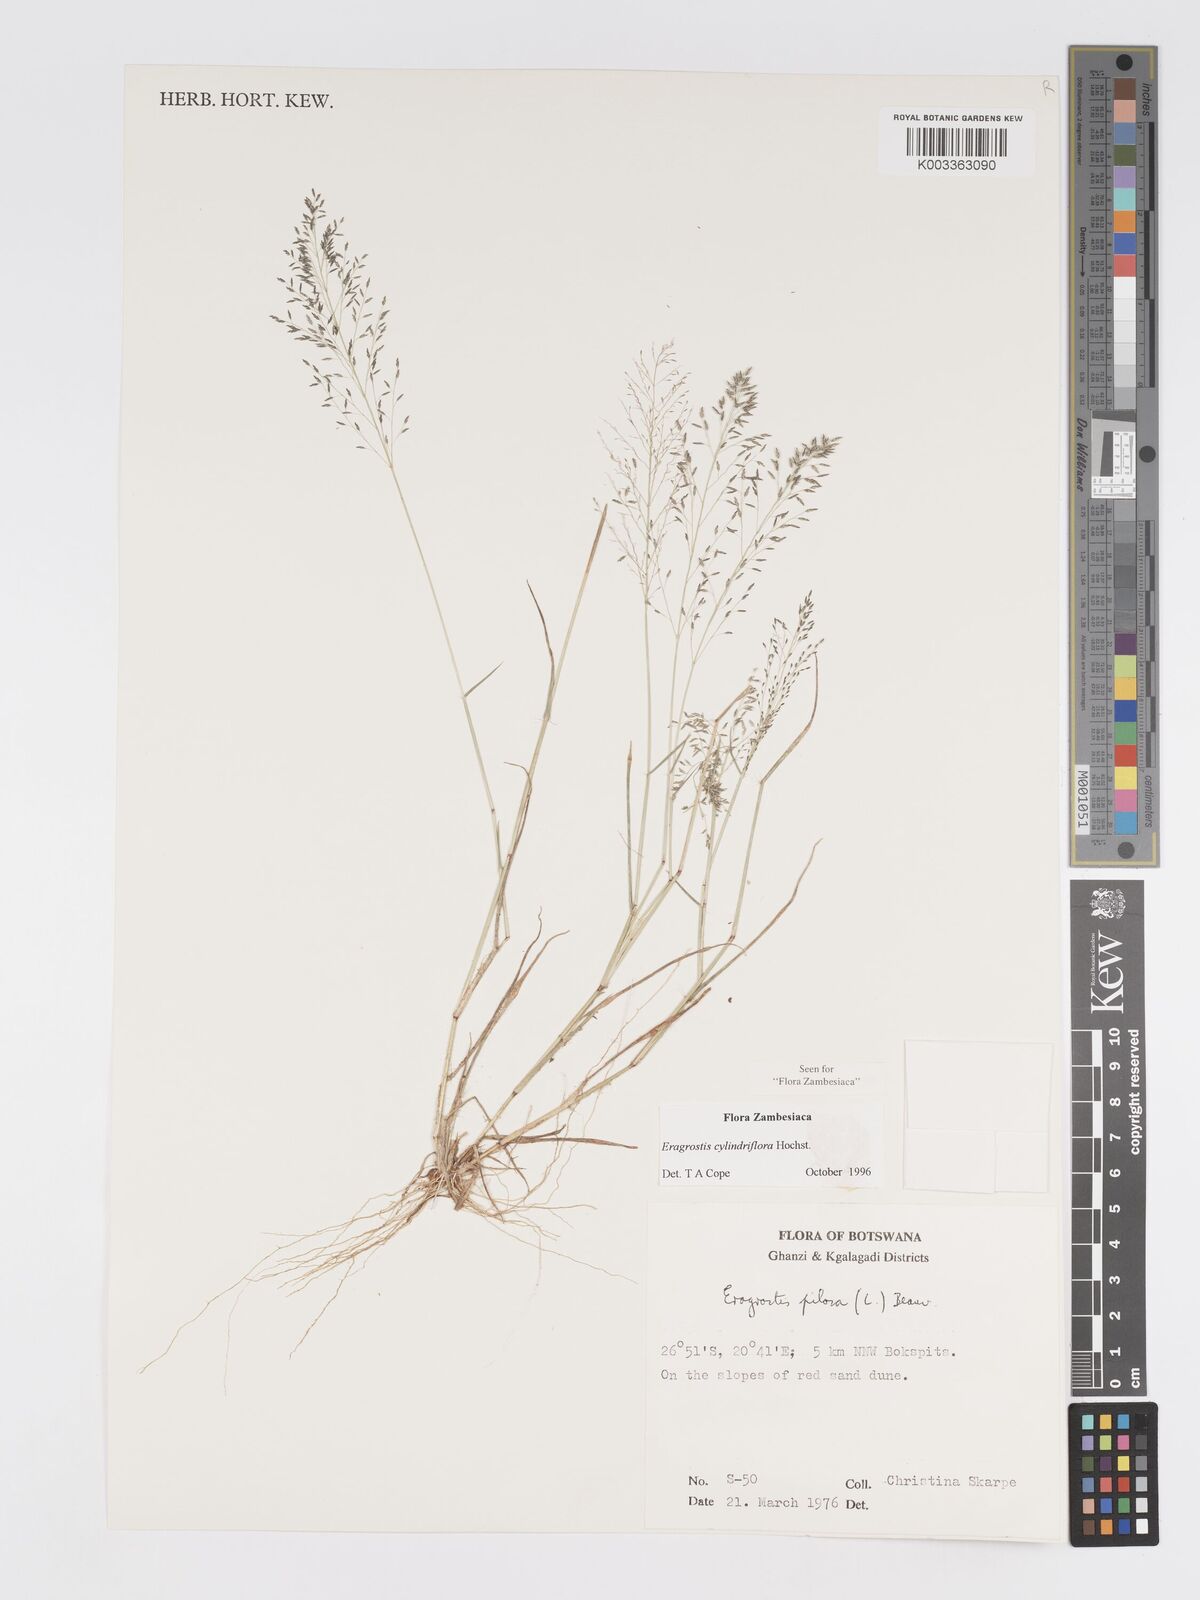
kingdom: Plantae
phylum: Tracheophyta
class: Liliopsida
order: Poales
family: Poaceae
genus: Eragrostis
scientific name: Eragrostis cylindriflora
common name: Cylinderflower lovegrass
